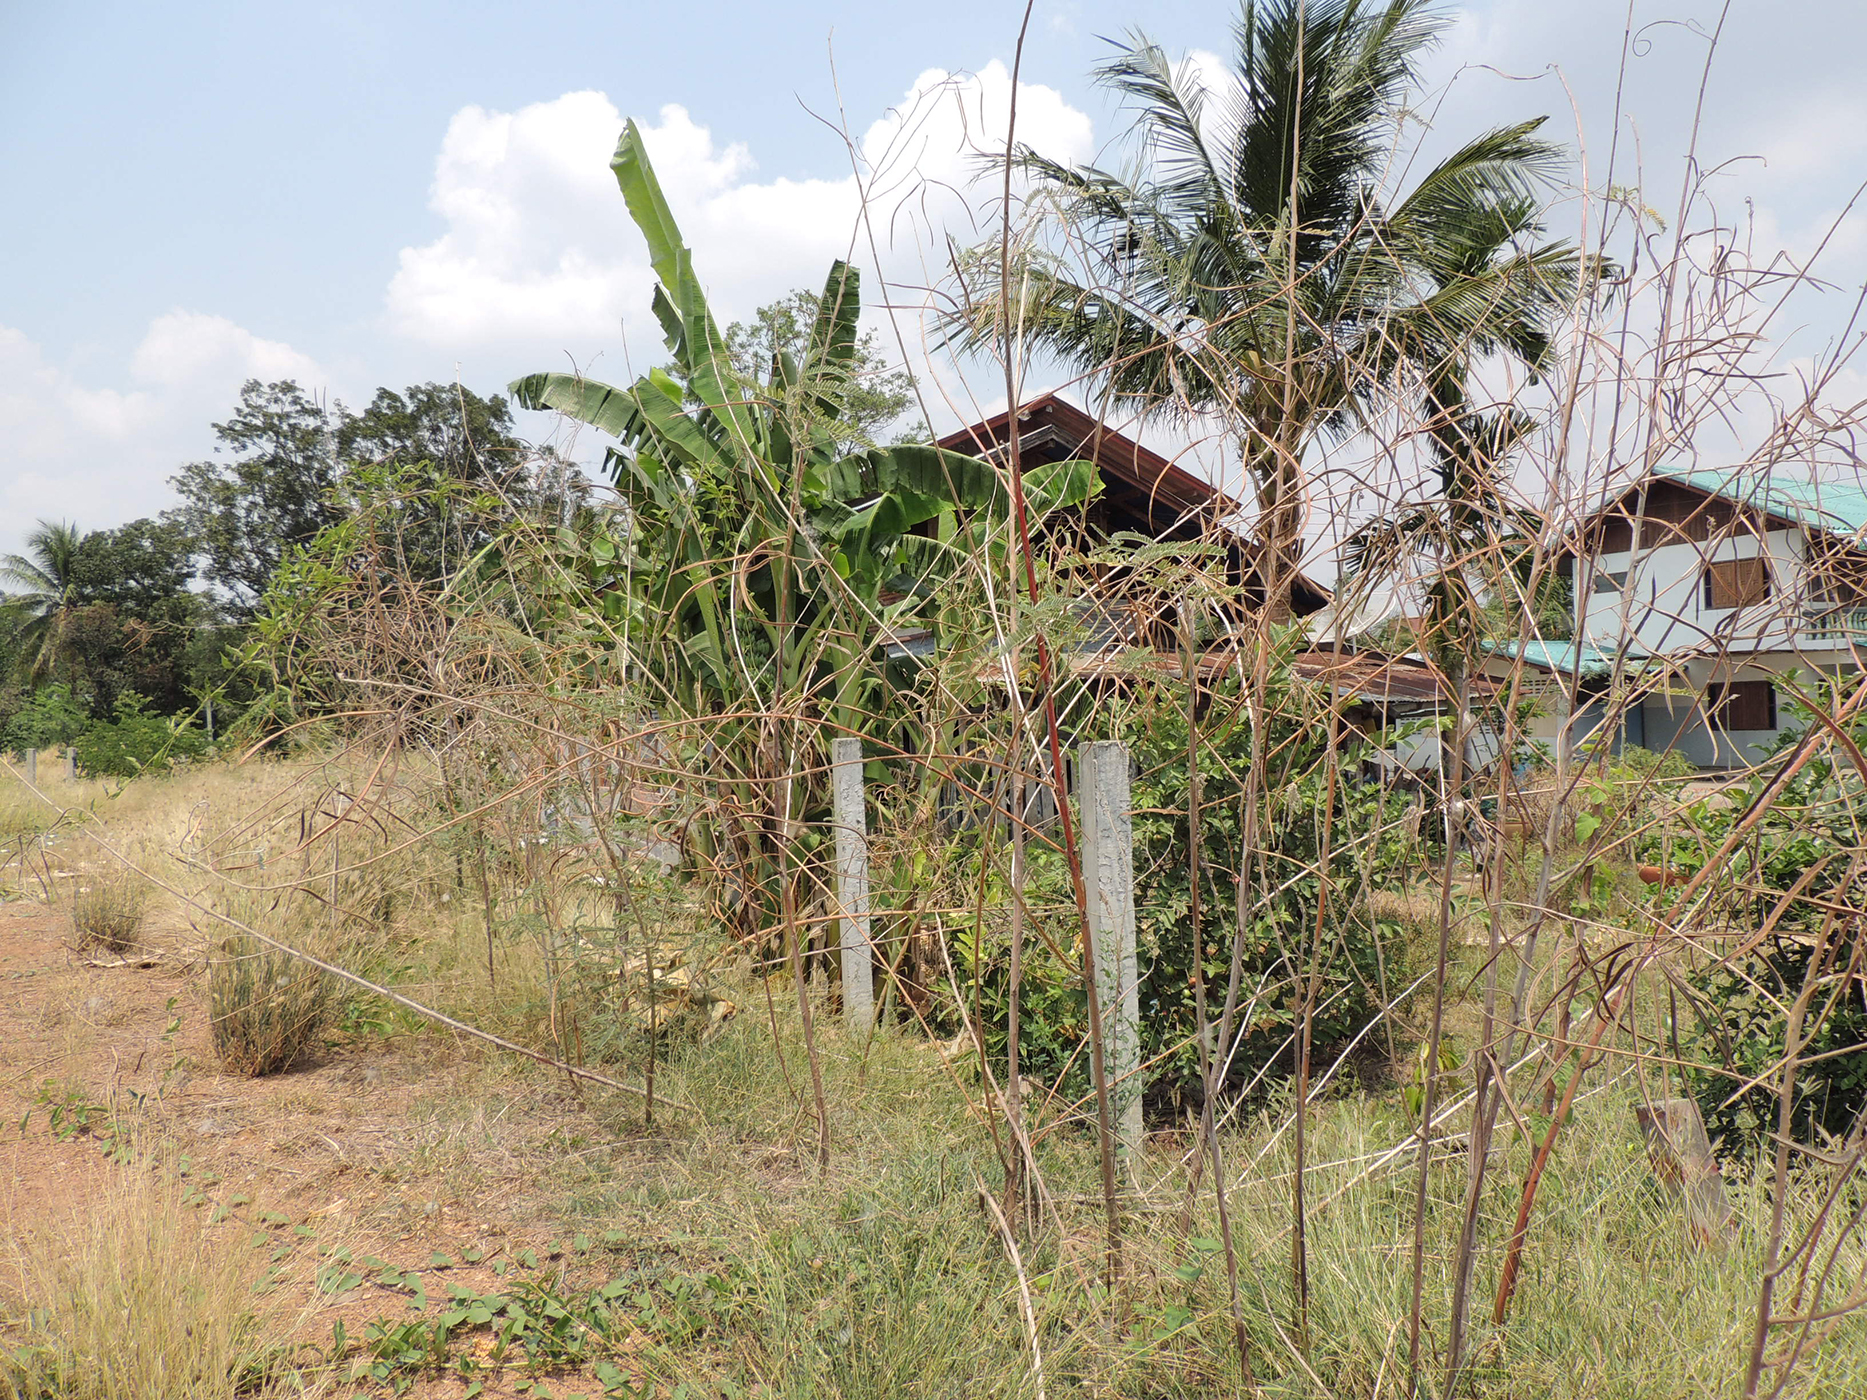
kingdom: Plantae
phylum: Tracheophyta
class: Magnoliopsida
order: Fabales
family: Fabaceae
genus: Sesbania
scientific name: Sesbania speciosa
